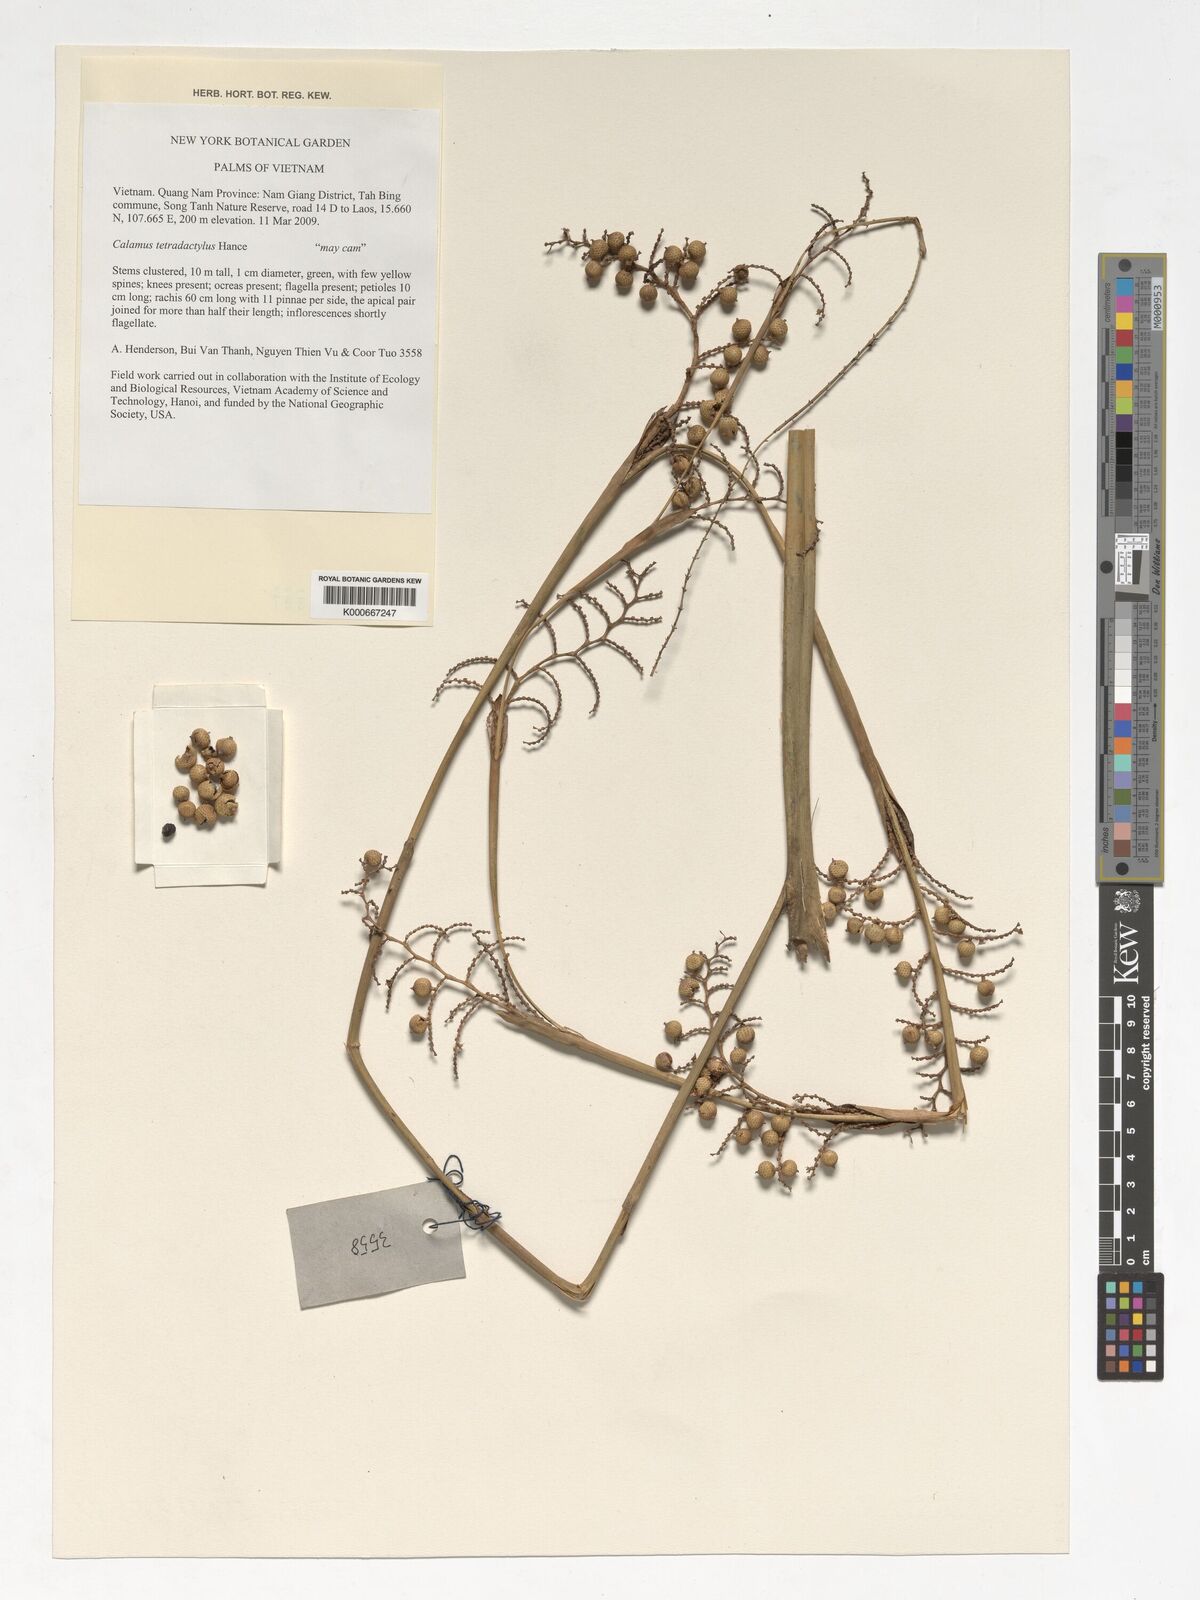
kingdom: Plantae
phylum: Tracheophyta
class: Liliopsida
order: Arecales
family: Arecaceae
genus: Calamus
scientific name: Calamus tetradactylus
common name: White rattan
